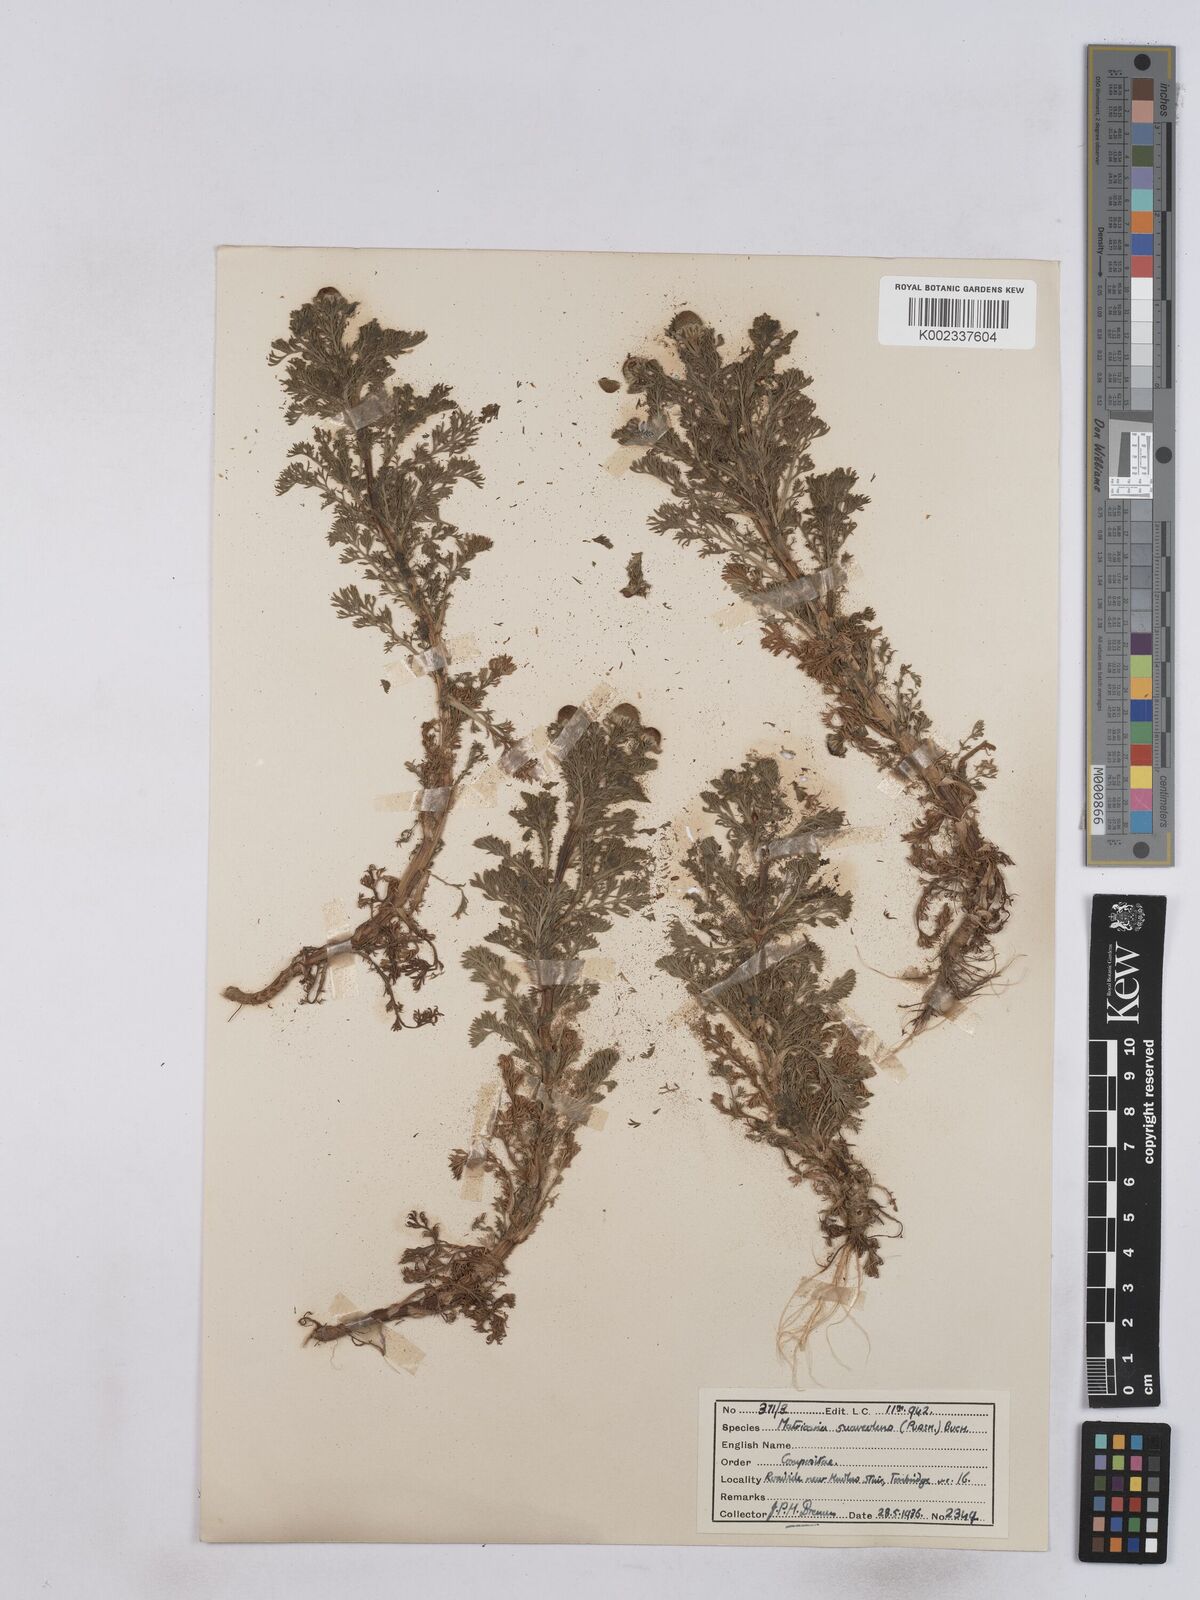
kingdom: Plantae
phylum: Tracheophyta
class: Magnoliopsida
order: Asterales
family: Asteraceae
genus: Matricaria
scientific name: Matricaria discoidea
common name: Disc mayweed
